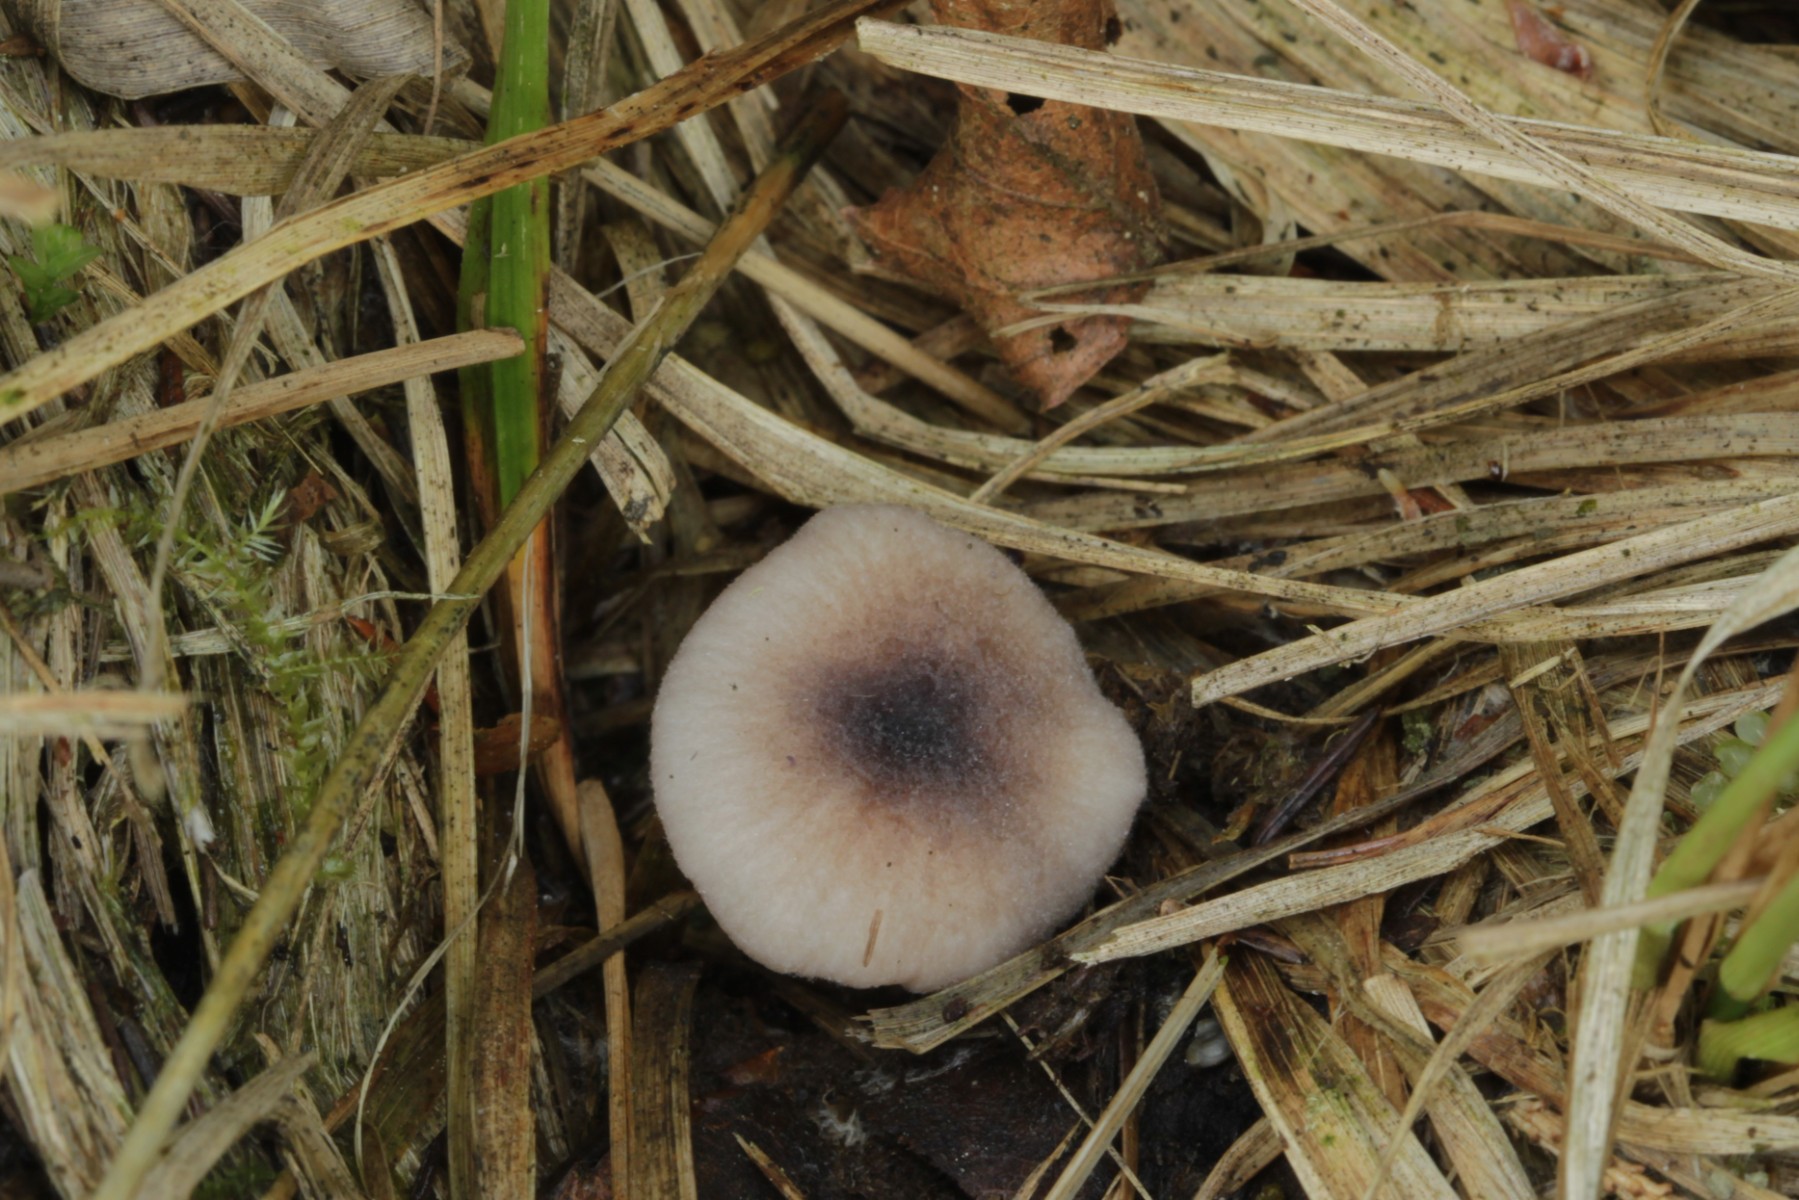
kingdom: Fungi
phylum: Basidiomycota
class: Agaricomycetes
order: Agaricales
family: Entolomataceae
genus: Entoloma
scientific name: Entoloma
